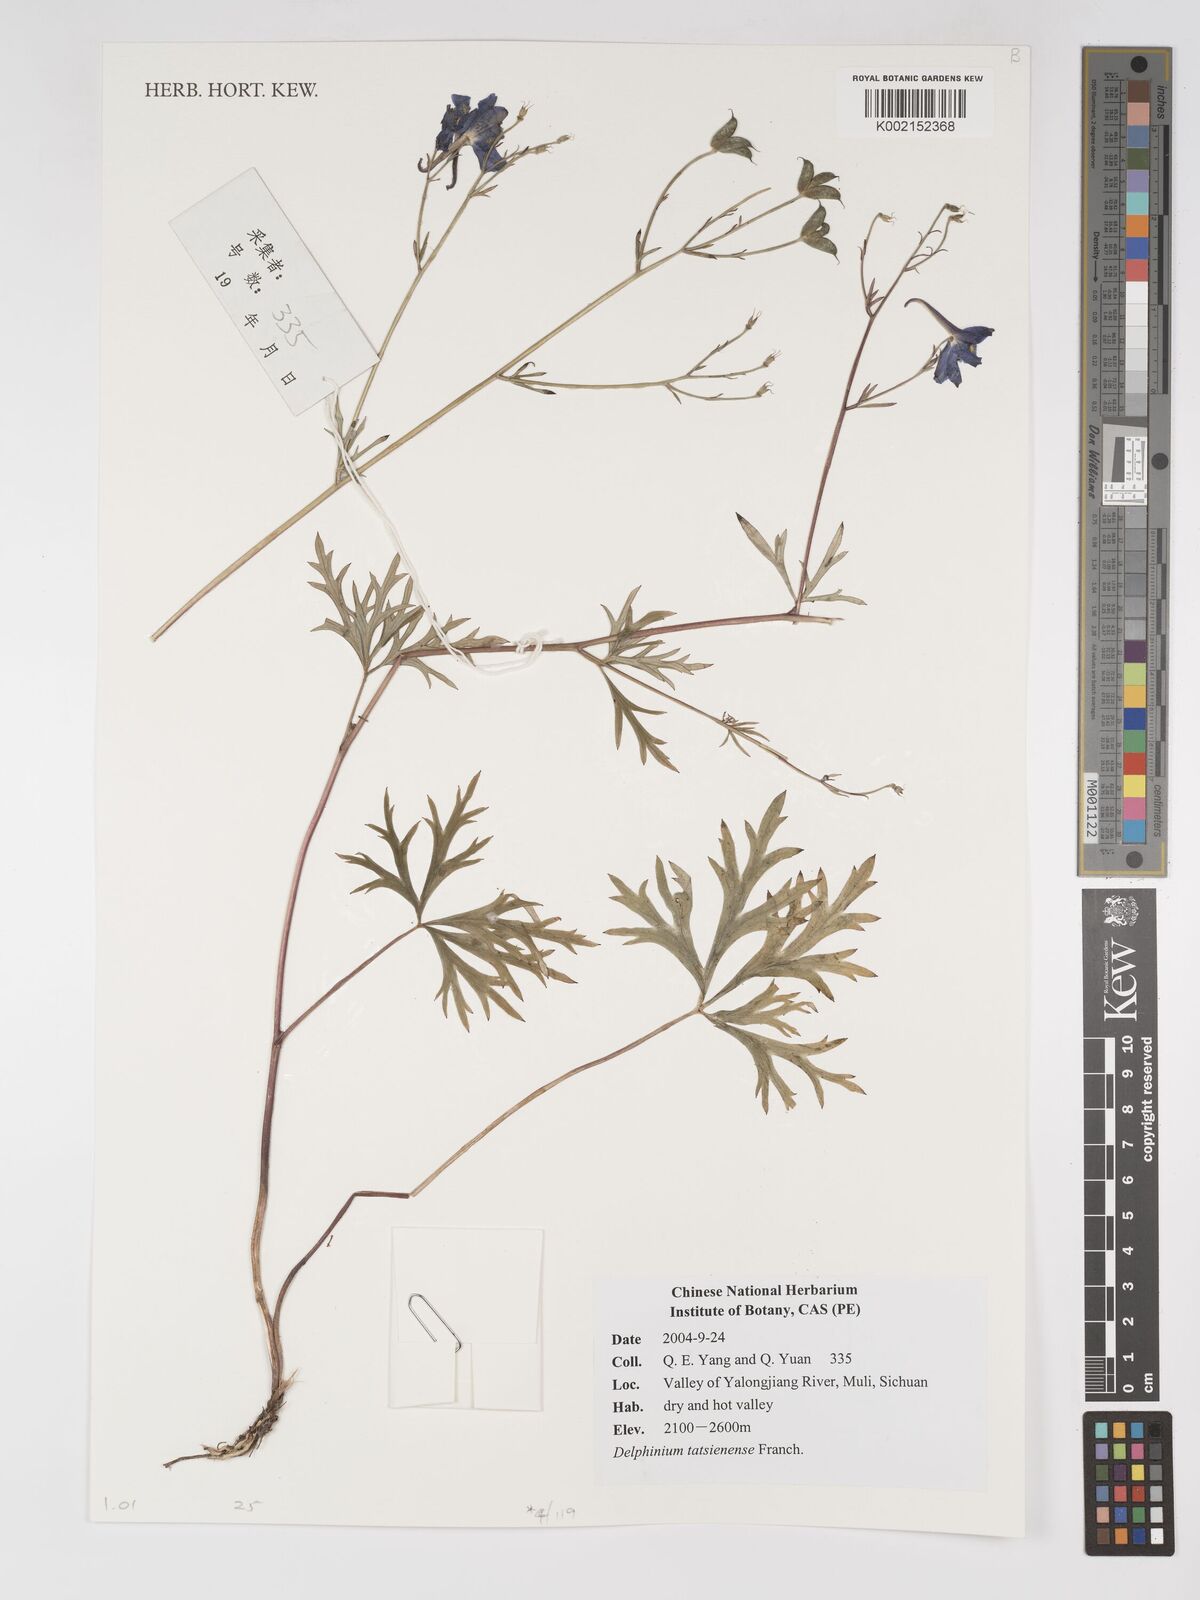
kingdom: Plantae
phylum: Tracheophyta
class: Magnoliopsida
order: Ranunculales
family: Ranunculaceae
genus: Delphinium
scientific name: Delphinium tatsienense
